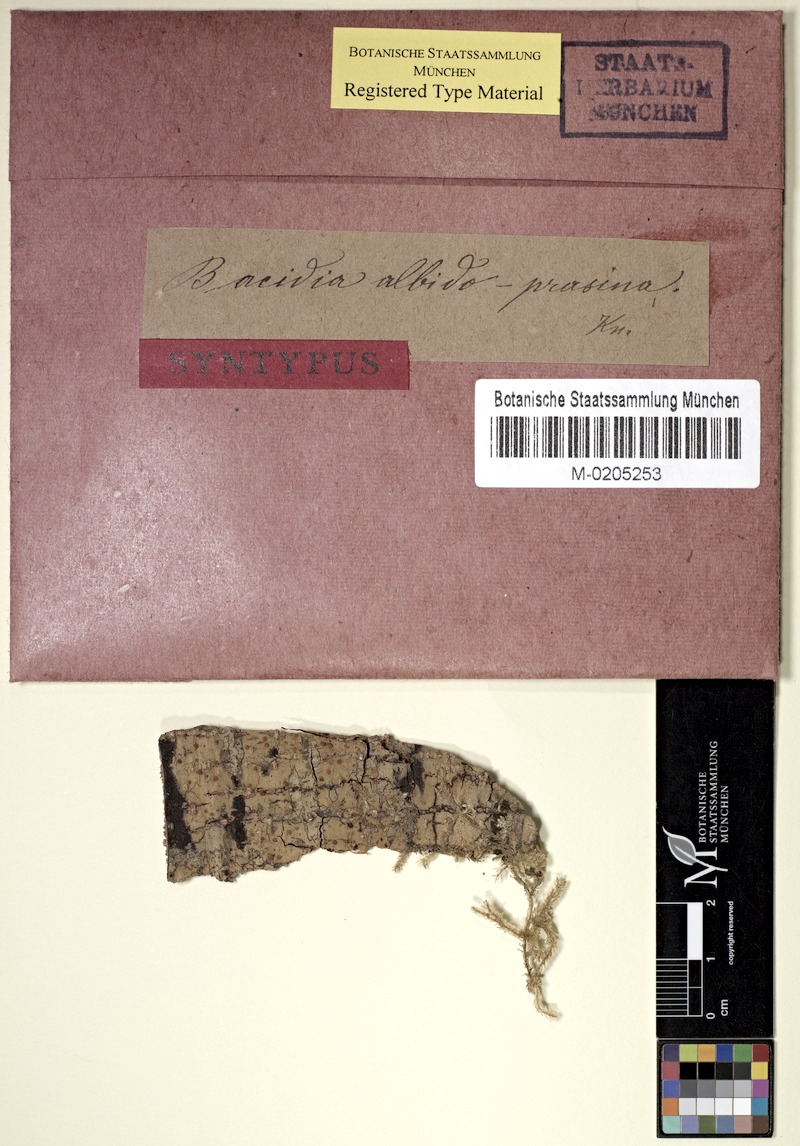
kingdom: Fungi
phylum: Ascomycota
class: Lecanoromycetes
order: Lecanorales
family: Ramalinaceae
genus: Bacidia
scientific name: Bacidia
